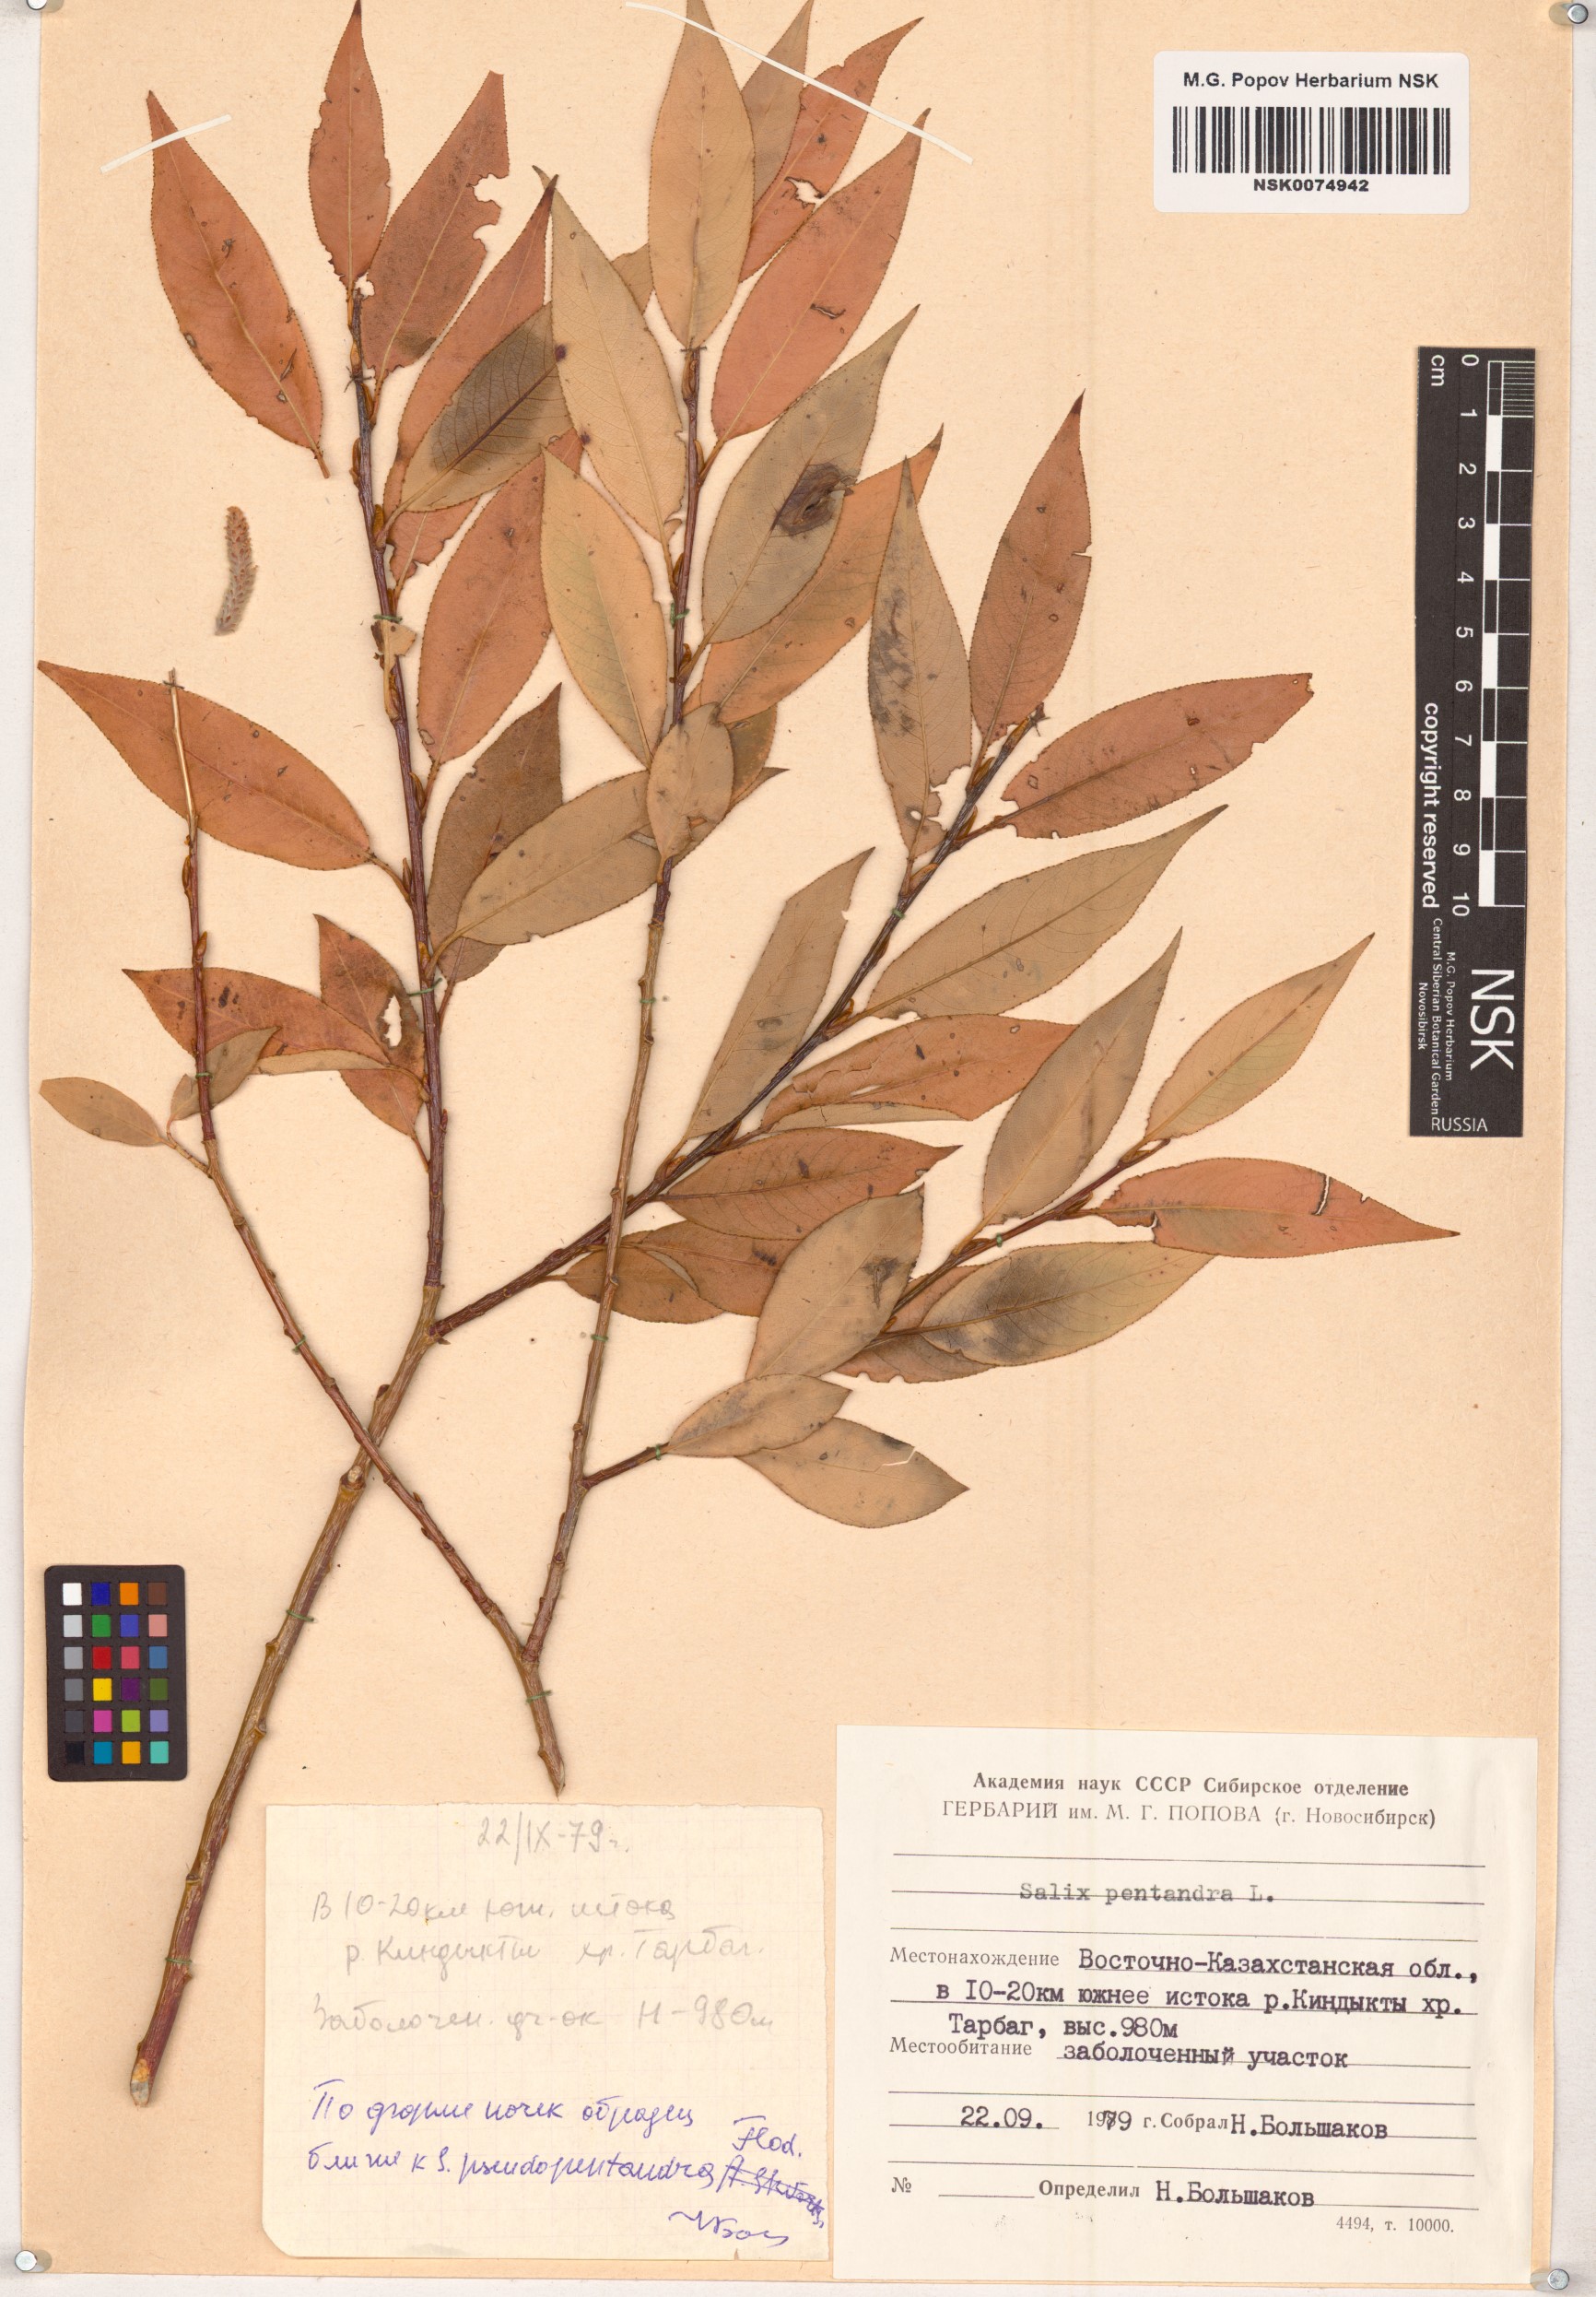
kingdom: Plantae
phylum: Tracheophyta
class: Magnoliopsida
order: Malpighiales
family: Salicaceae
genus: Salix
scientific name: Salix pentandra
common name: Bay willow
